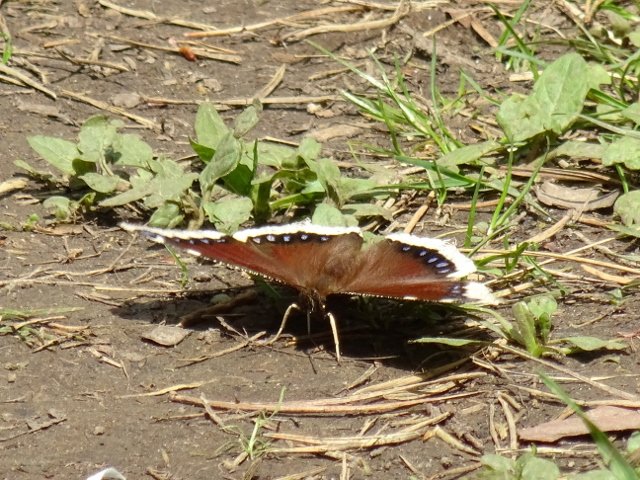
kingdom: Animalia
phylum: Arthropoda
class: Insecta
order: Lepidoptera
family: Nymphalidae
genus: Nymphalis
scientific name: Nymphalis antiopa
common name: Mourning Cloak
